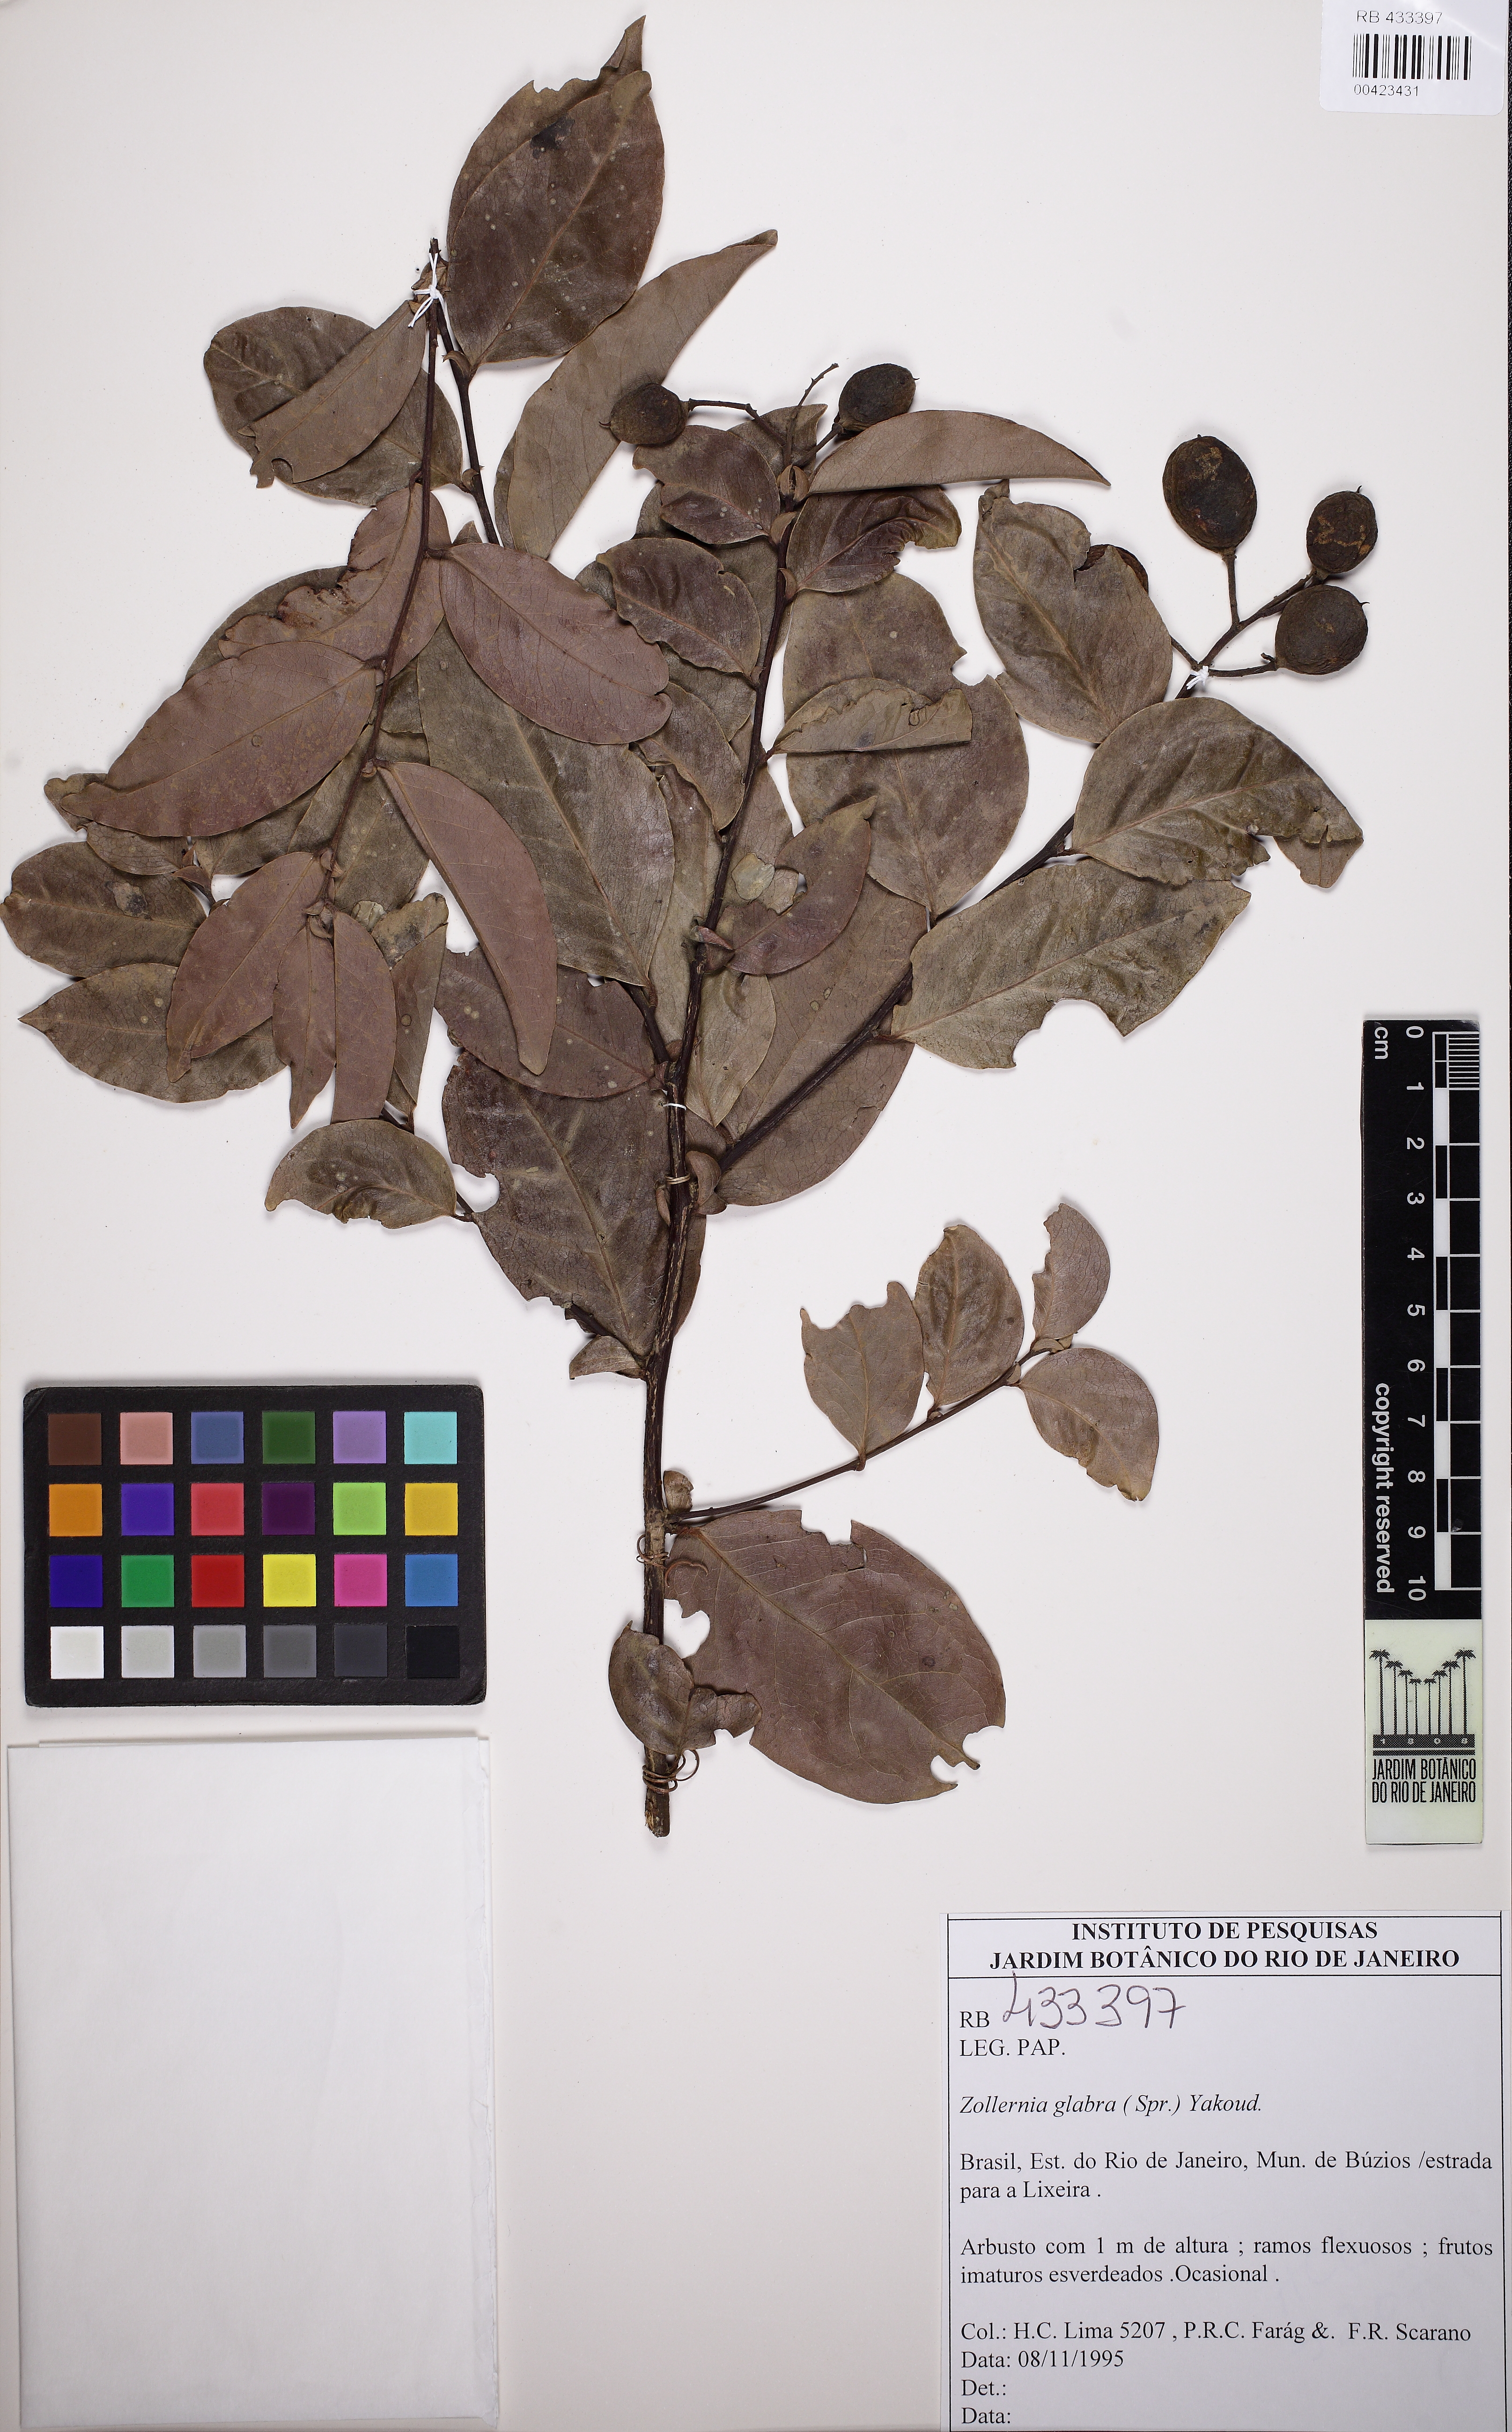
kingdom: Plantae
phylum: Tracheophyta
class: Magnoliopsida
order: Fabales
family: Fabaceae
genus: Zollernia
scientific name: Zollernia glabra
